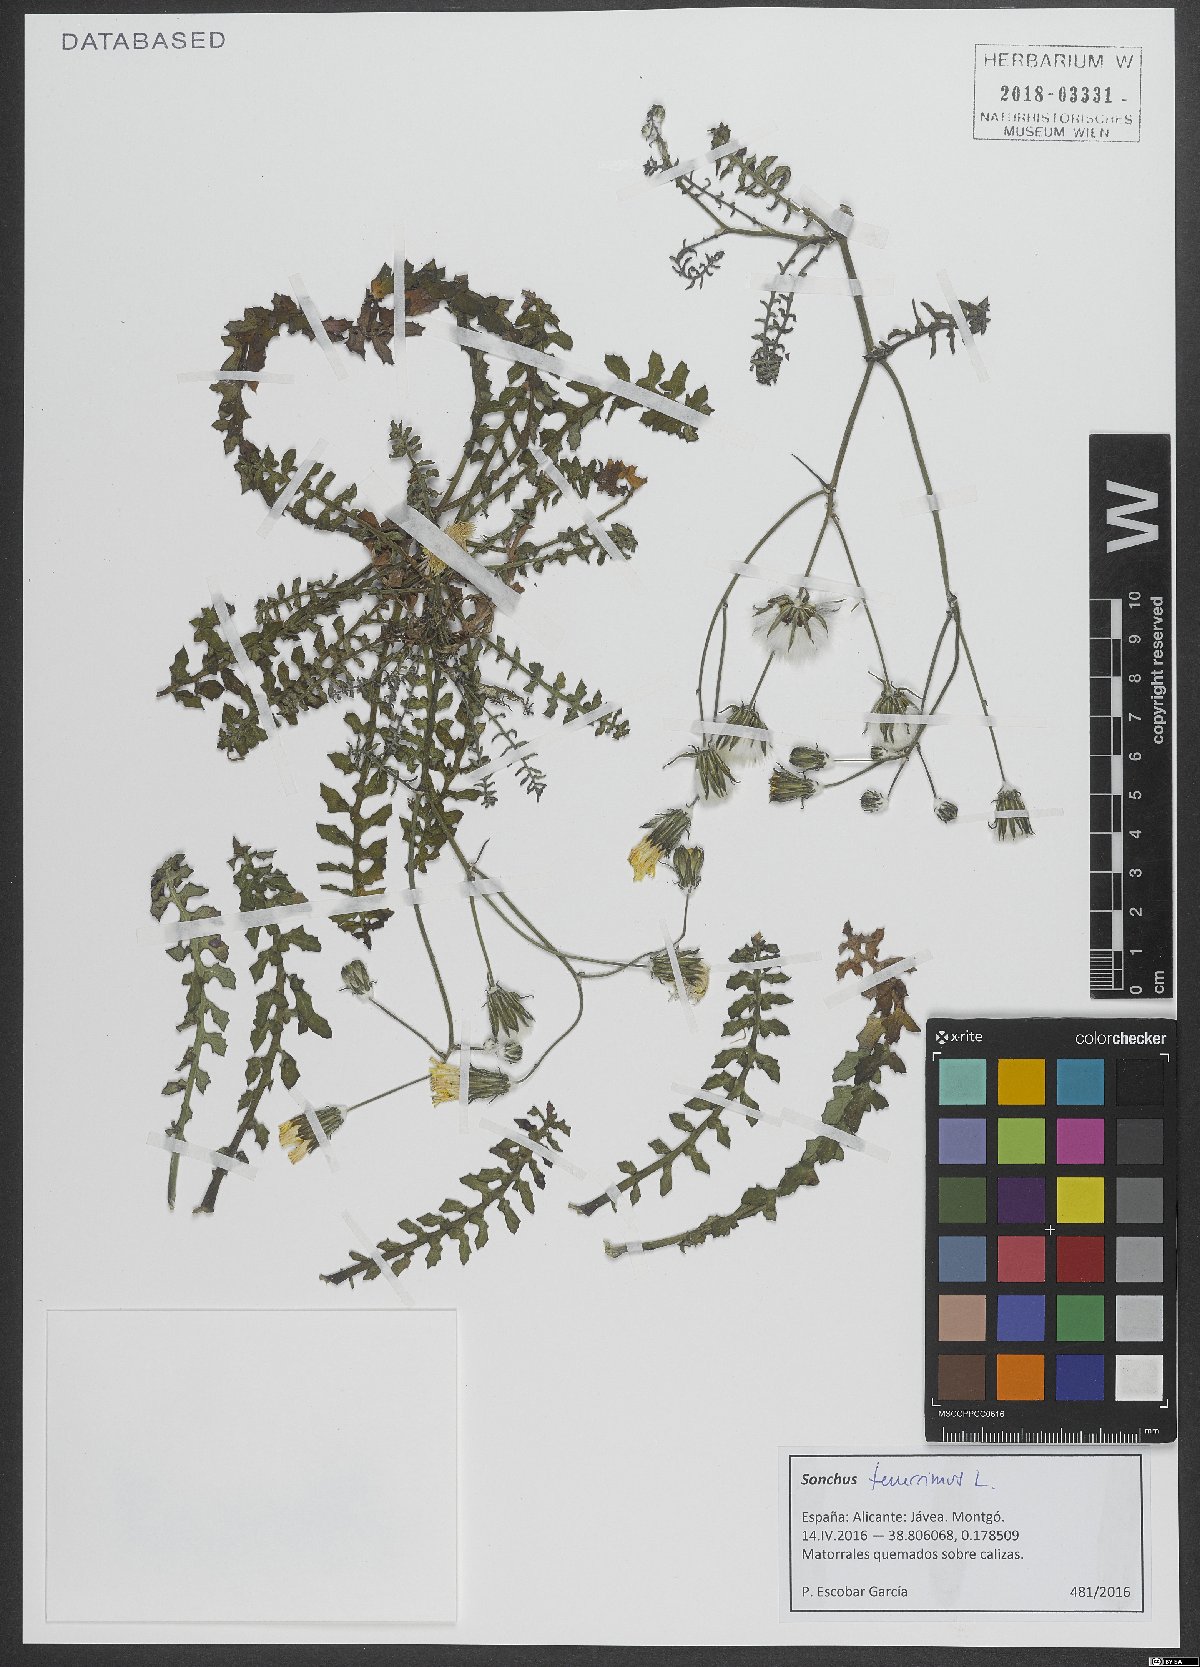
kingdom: Plantae
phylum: Tracheophyta
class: Magnoliopsida
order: Asterales
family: Asteraceae
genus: Sonchus
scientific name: Sonchus tenerrimus
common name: Clammy sowthistle
